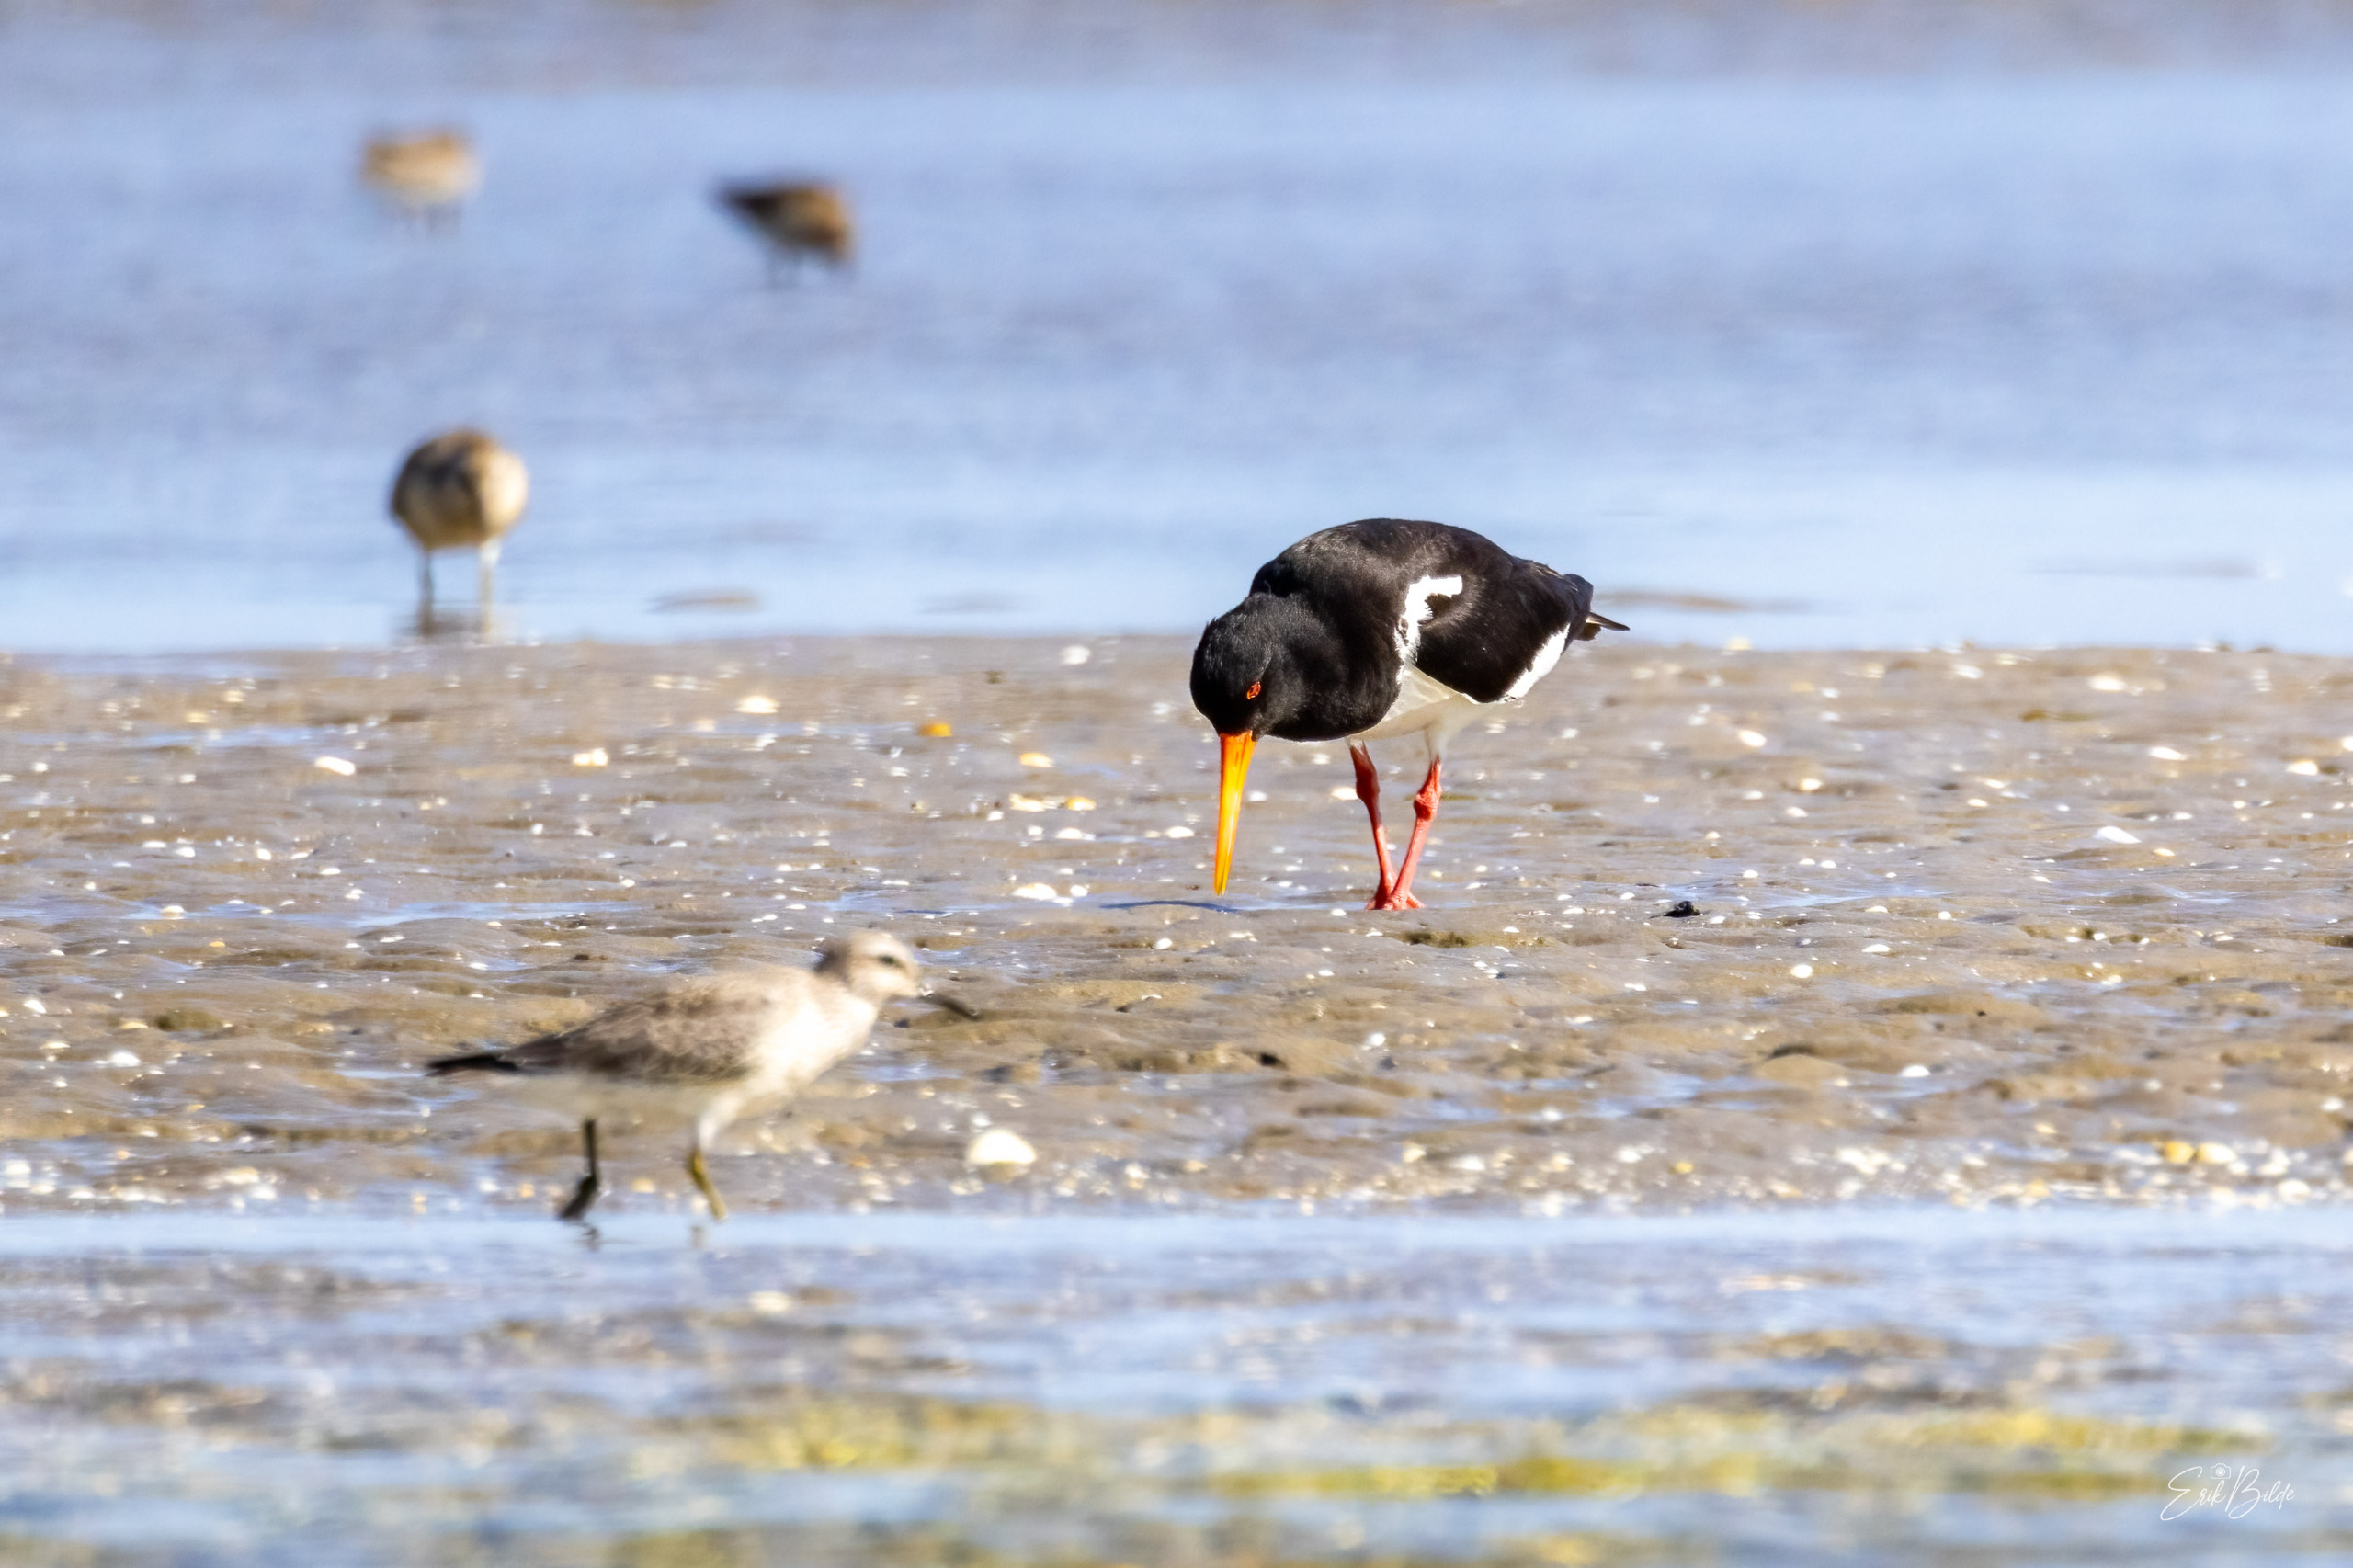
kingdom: Animalia
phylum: Chordata
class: Aves
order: Charadriiformes
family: Haematopodidae
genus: Haematopus
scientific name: Haematopus ostralegus
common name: Strandskade
